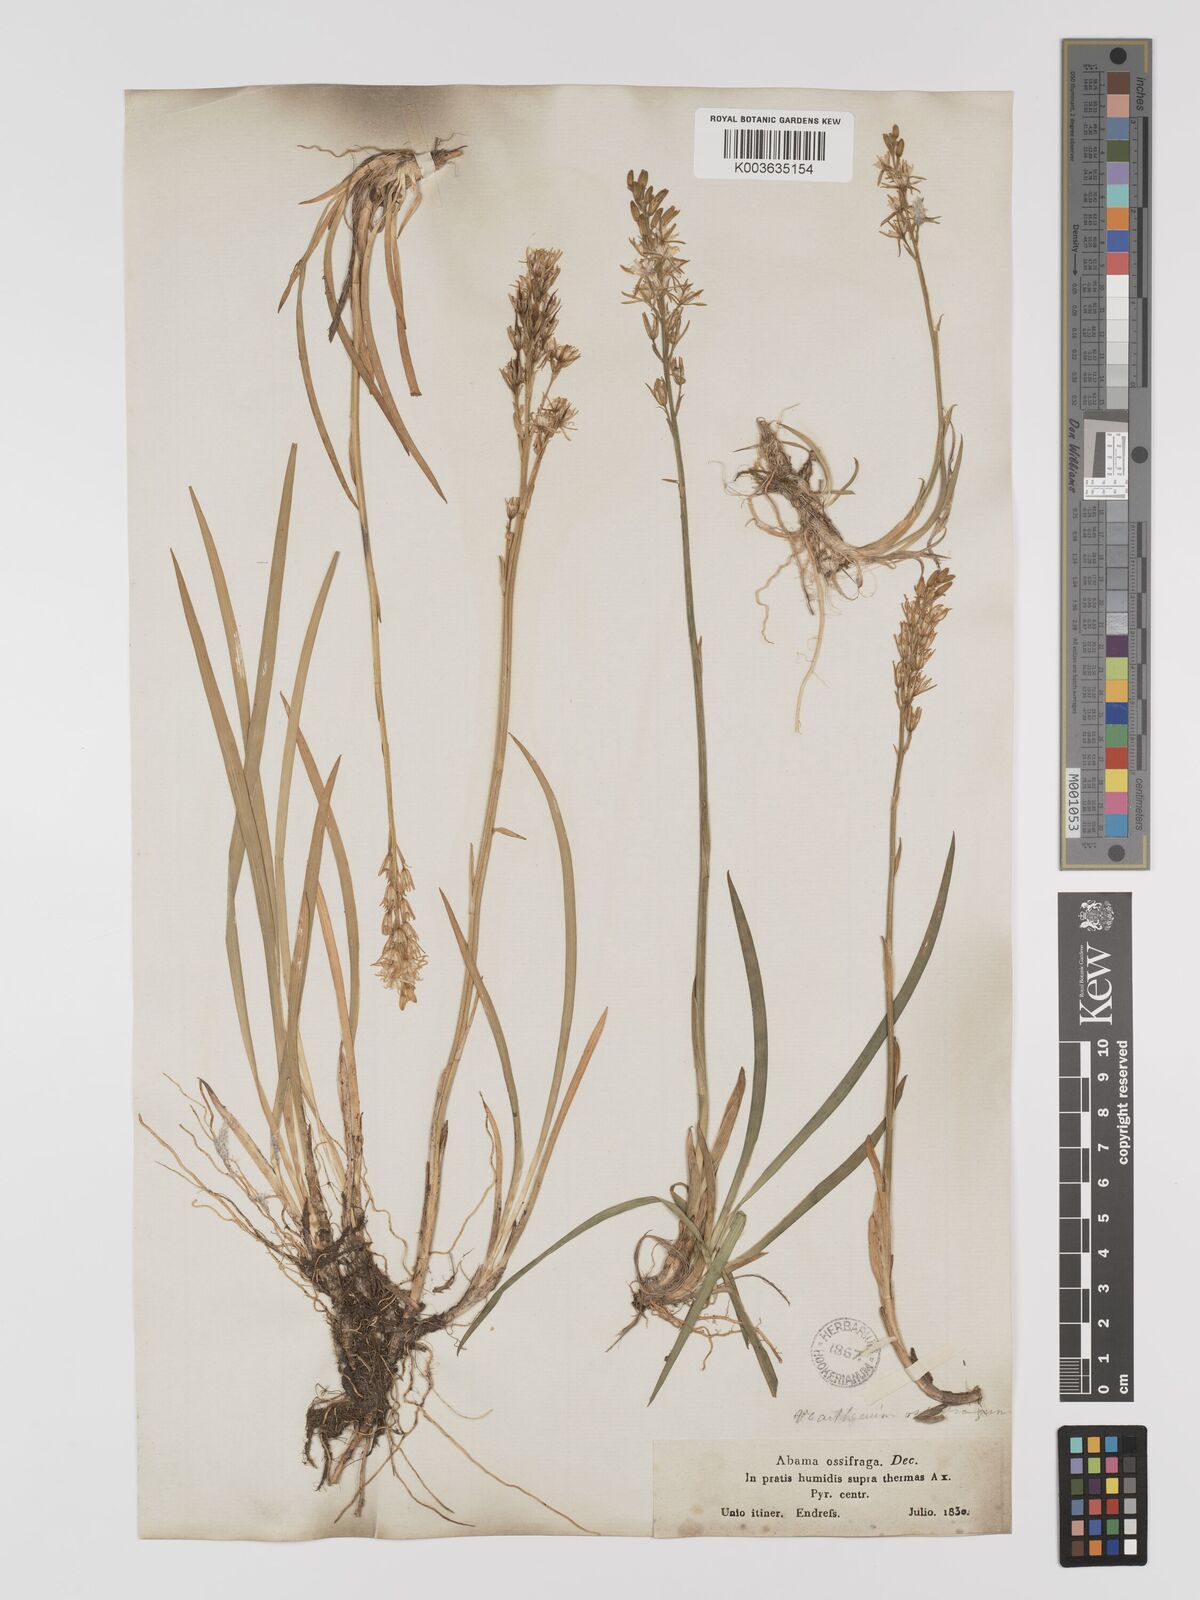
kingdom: Plantae
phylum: Tracheophyta
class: Liliopsida
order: Dioscoreales
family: Nartheciaceae
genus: Narthecium
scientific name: Narthecium ossifragum
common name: Bog asphodel
